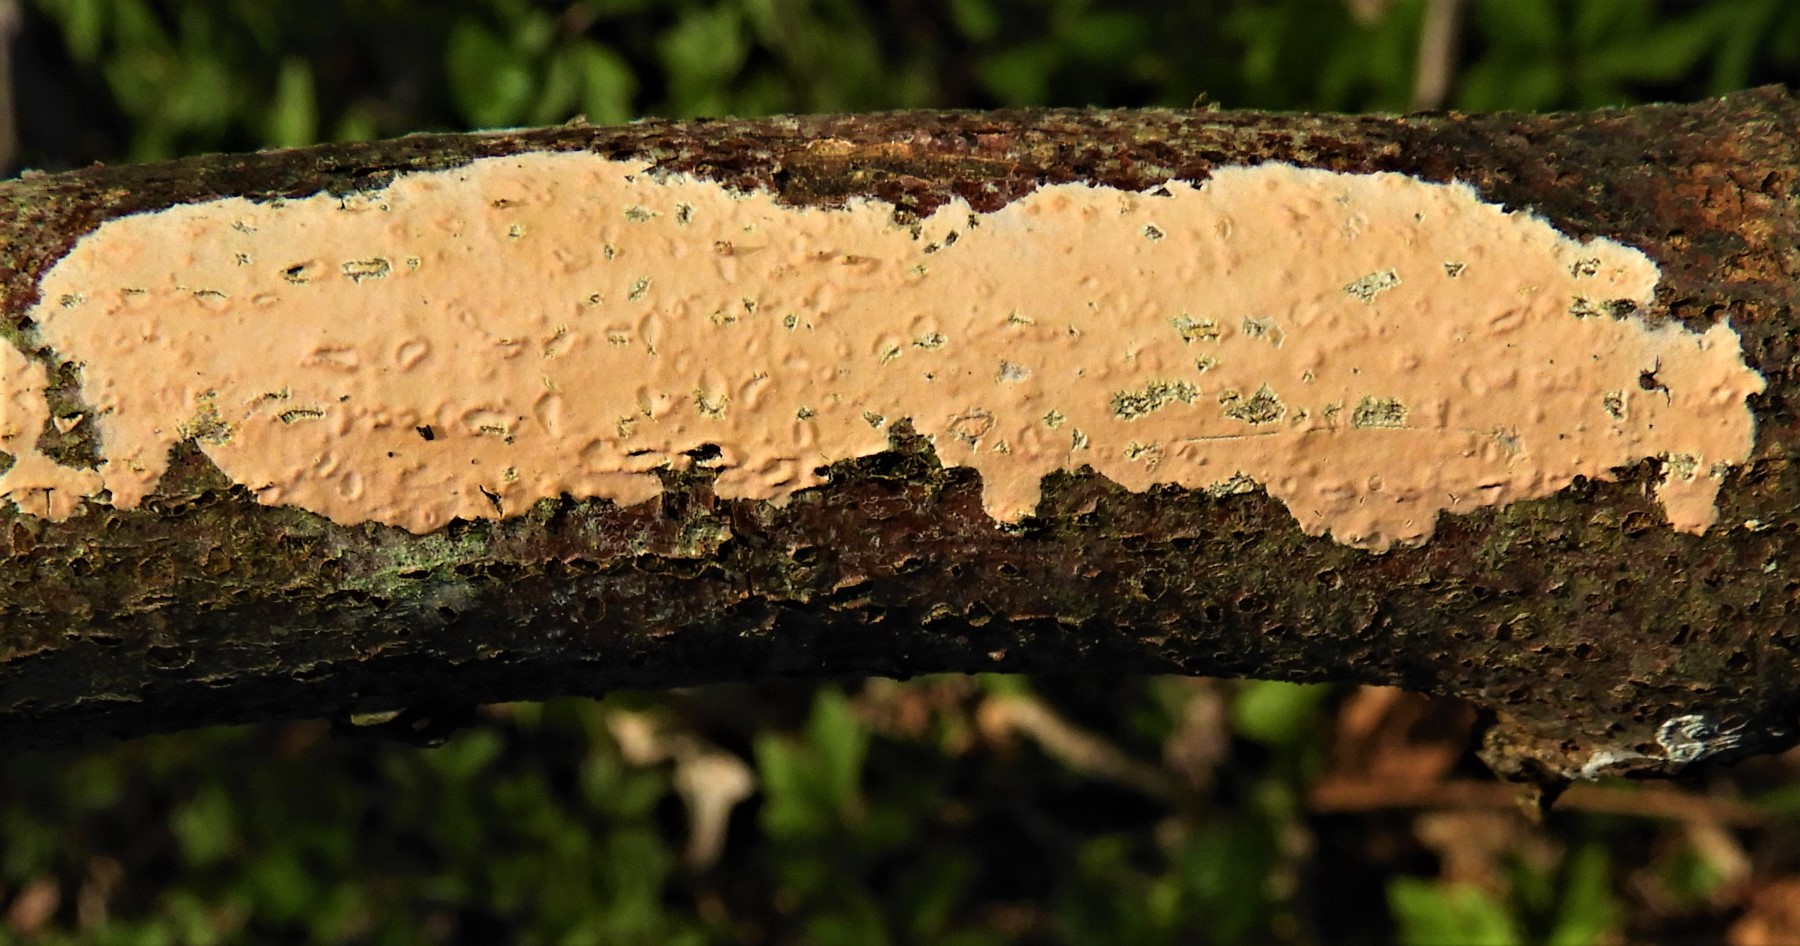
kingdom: Fungi
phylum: Basidiomycota
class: Agaricomycetes
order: Russulales
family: Peniophoraceae
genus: Peniophora
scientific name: Peniophora incarnata
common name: laksefarvet voksskind
